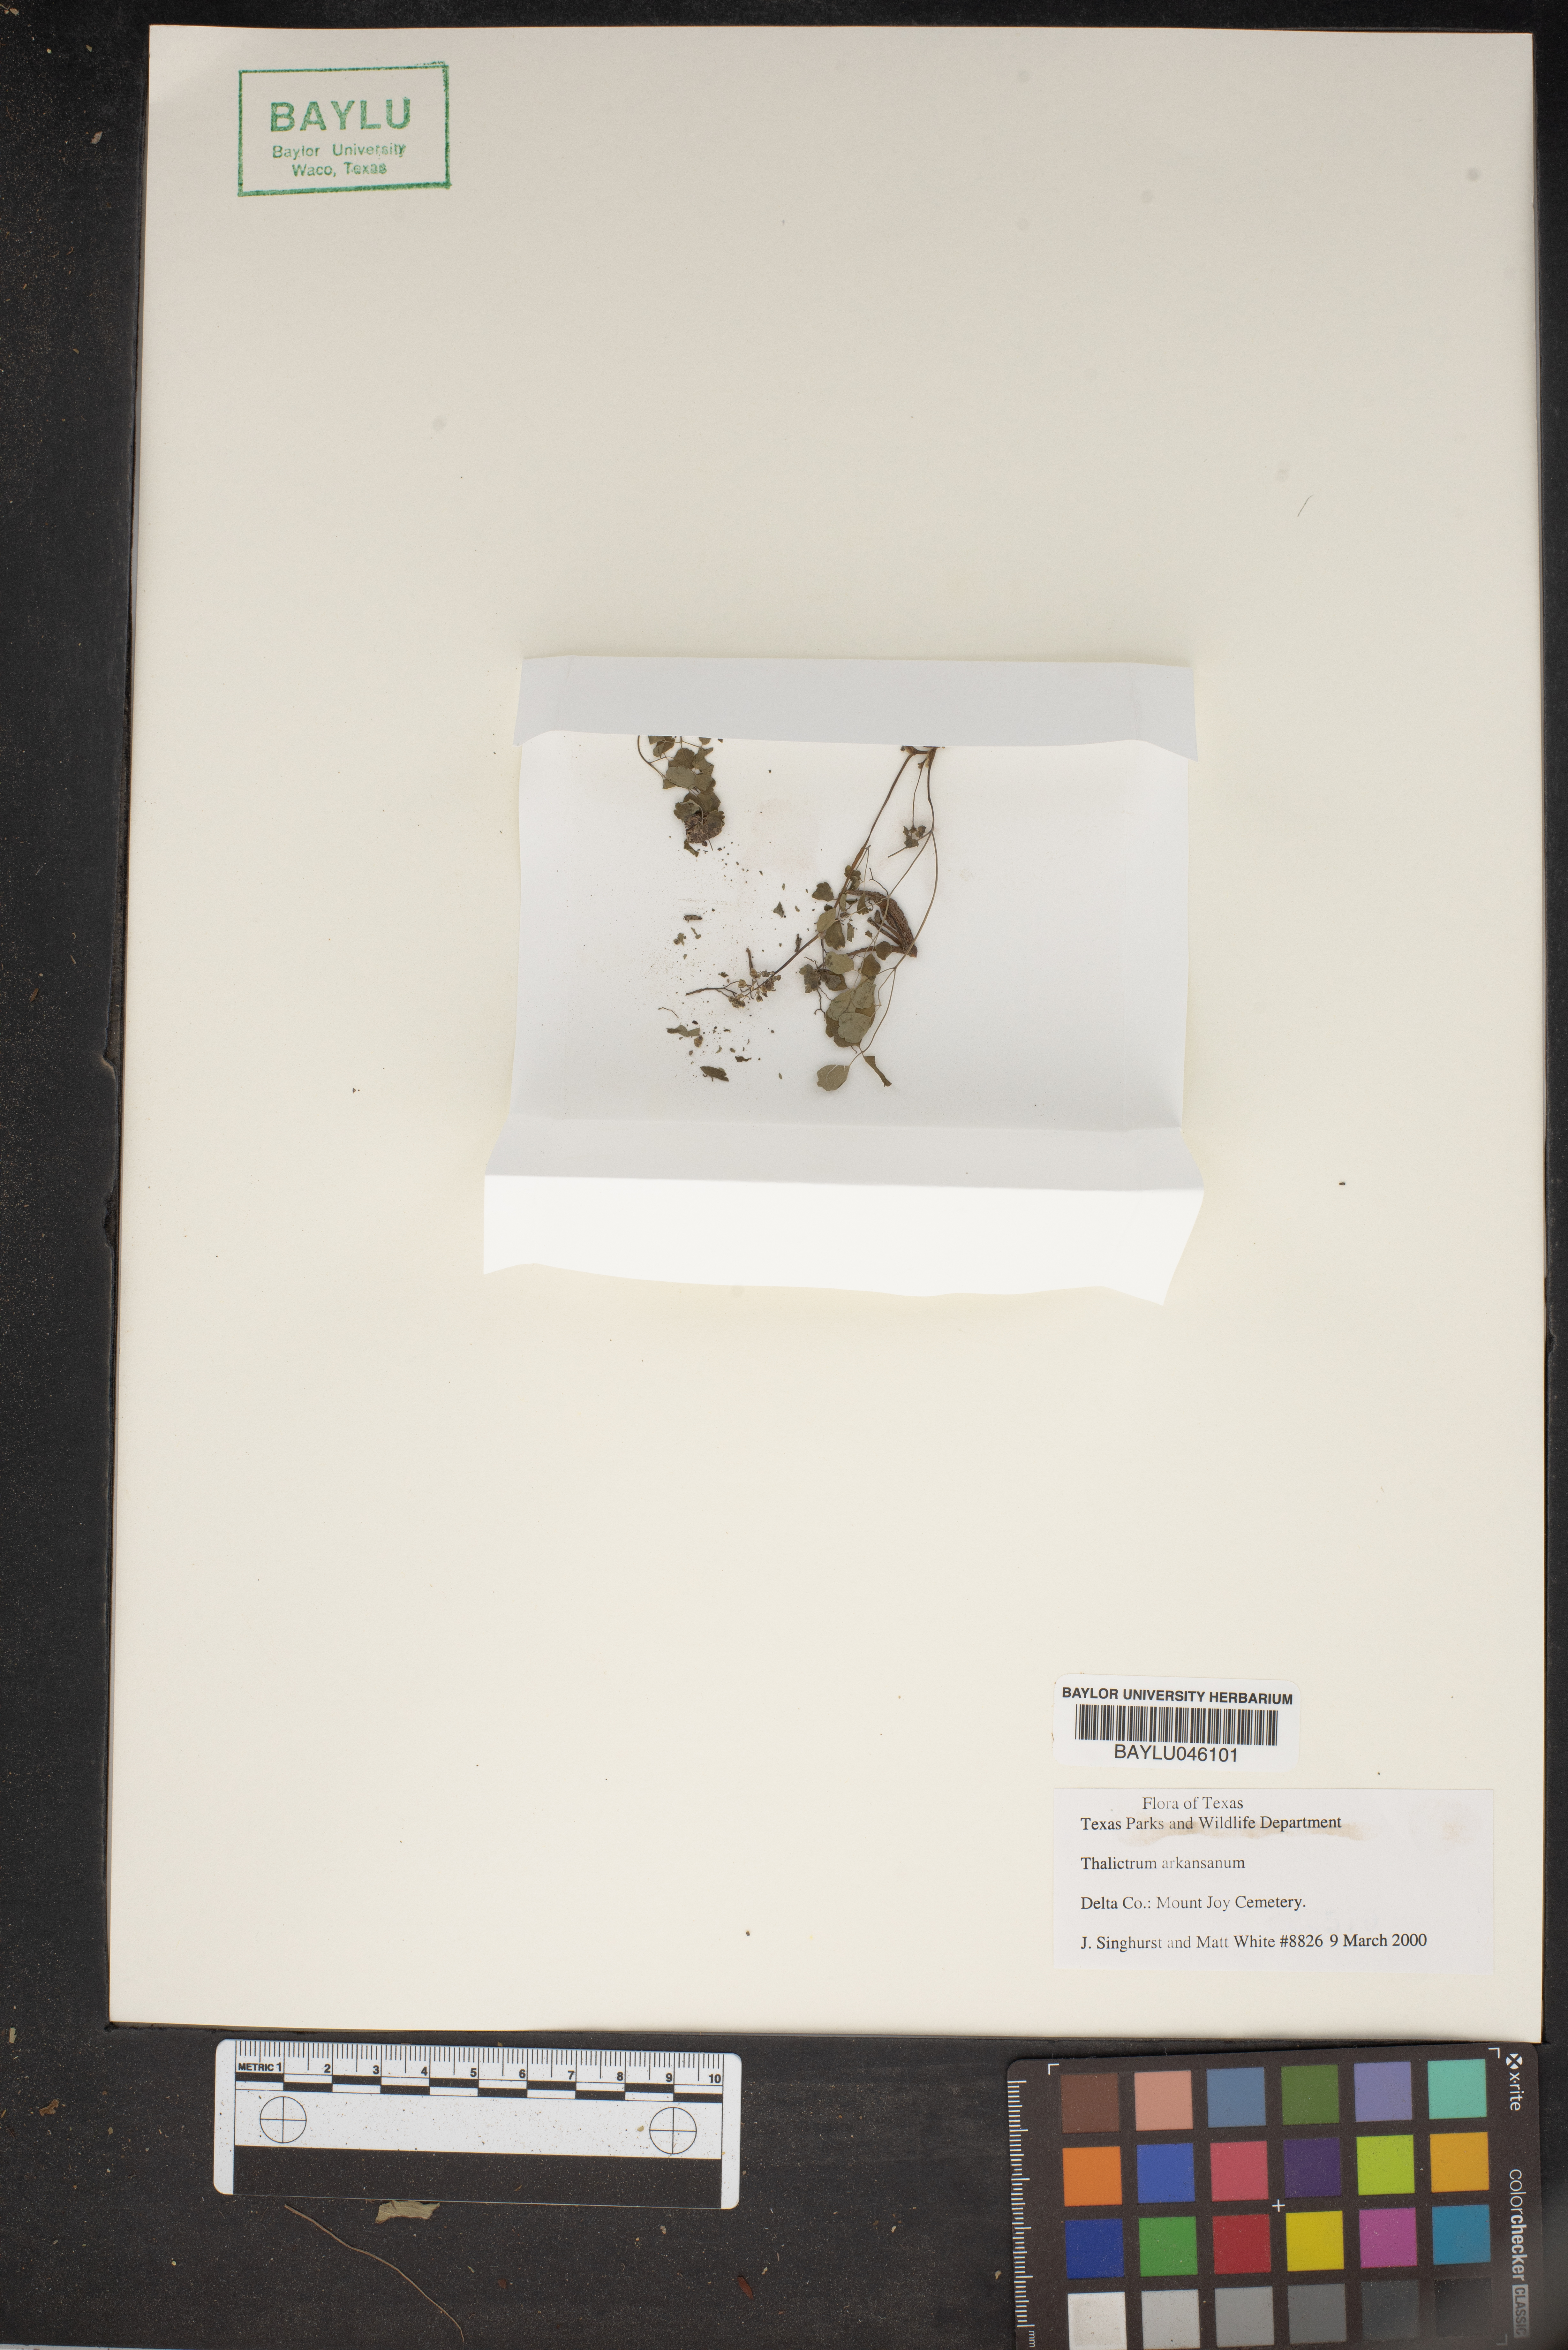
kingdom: Plantae
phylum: Tracheophyta
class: Magnoliopsida
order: Ranunculales
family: Ranunculaceae
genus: Thalictrum
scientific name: Thalictrum arkansanum
